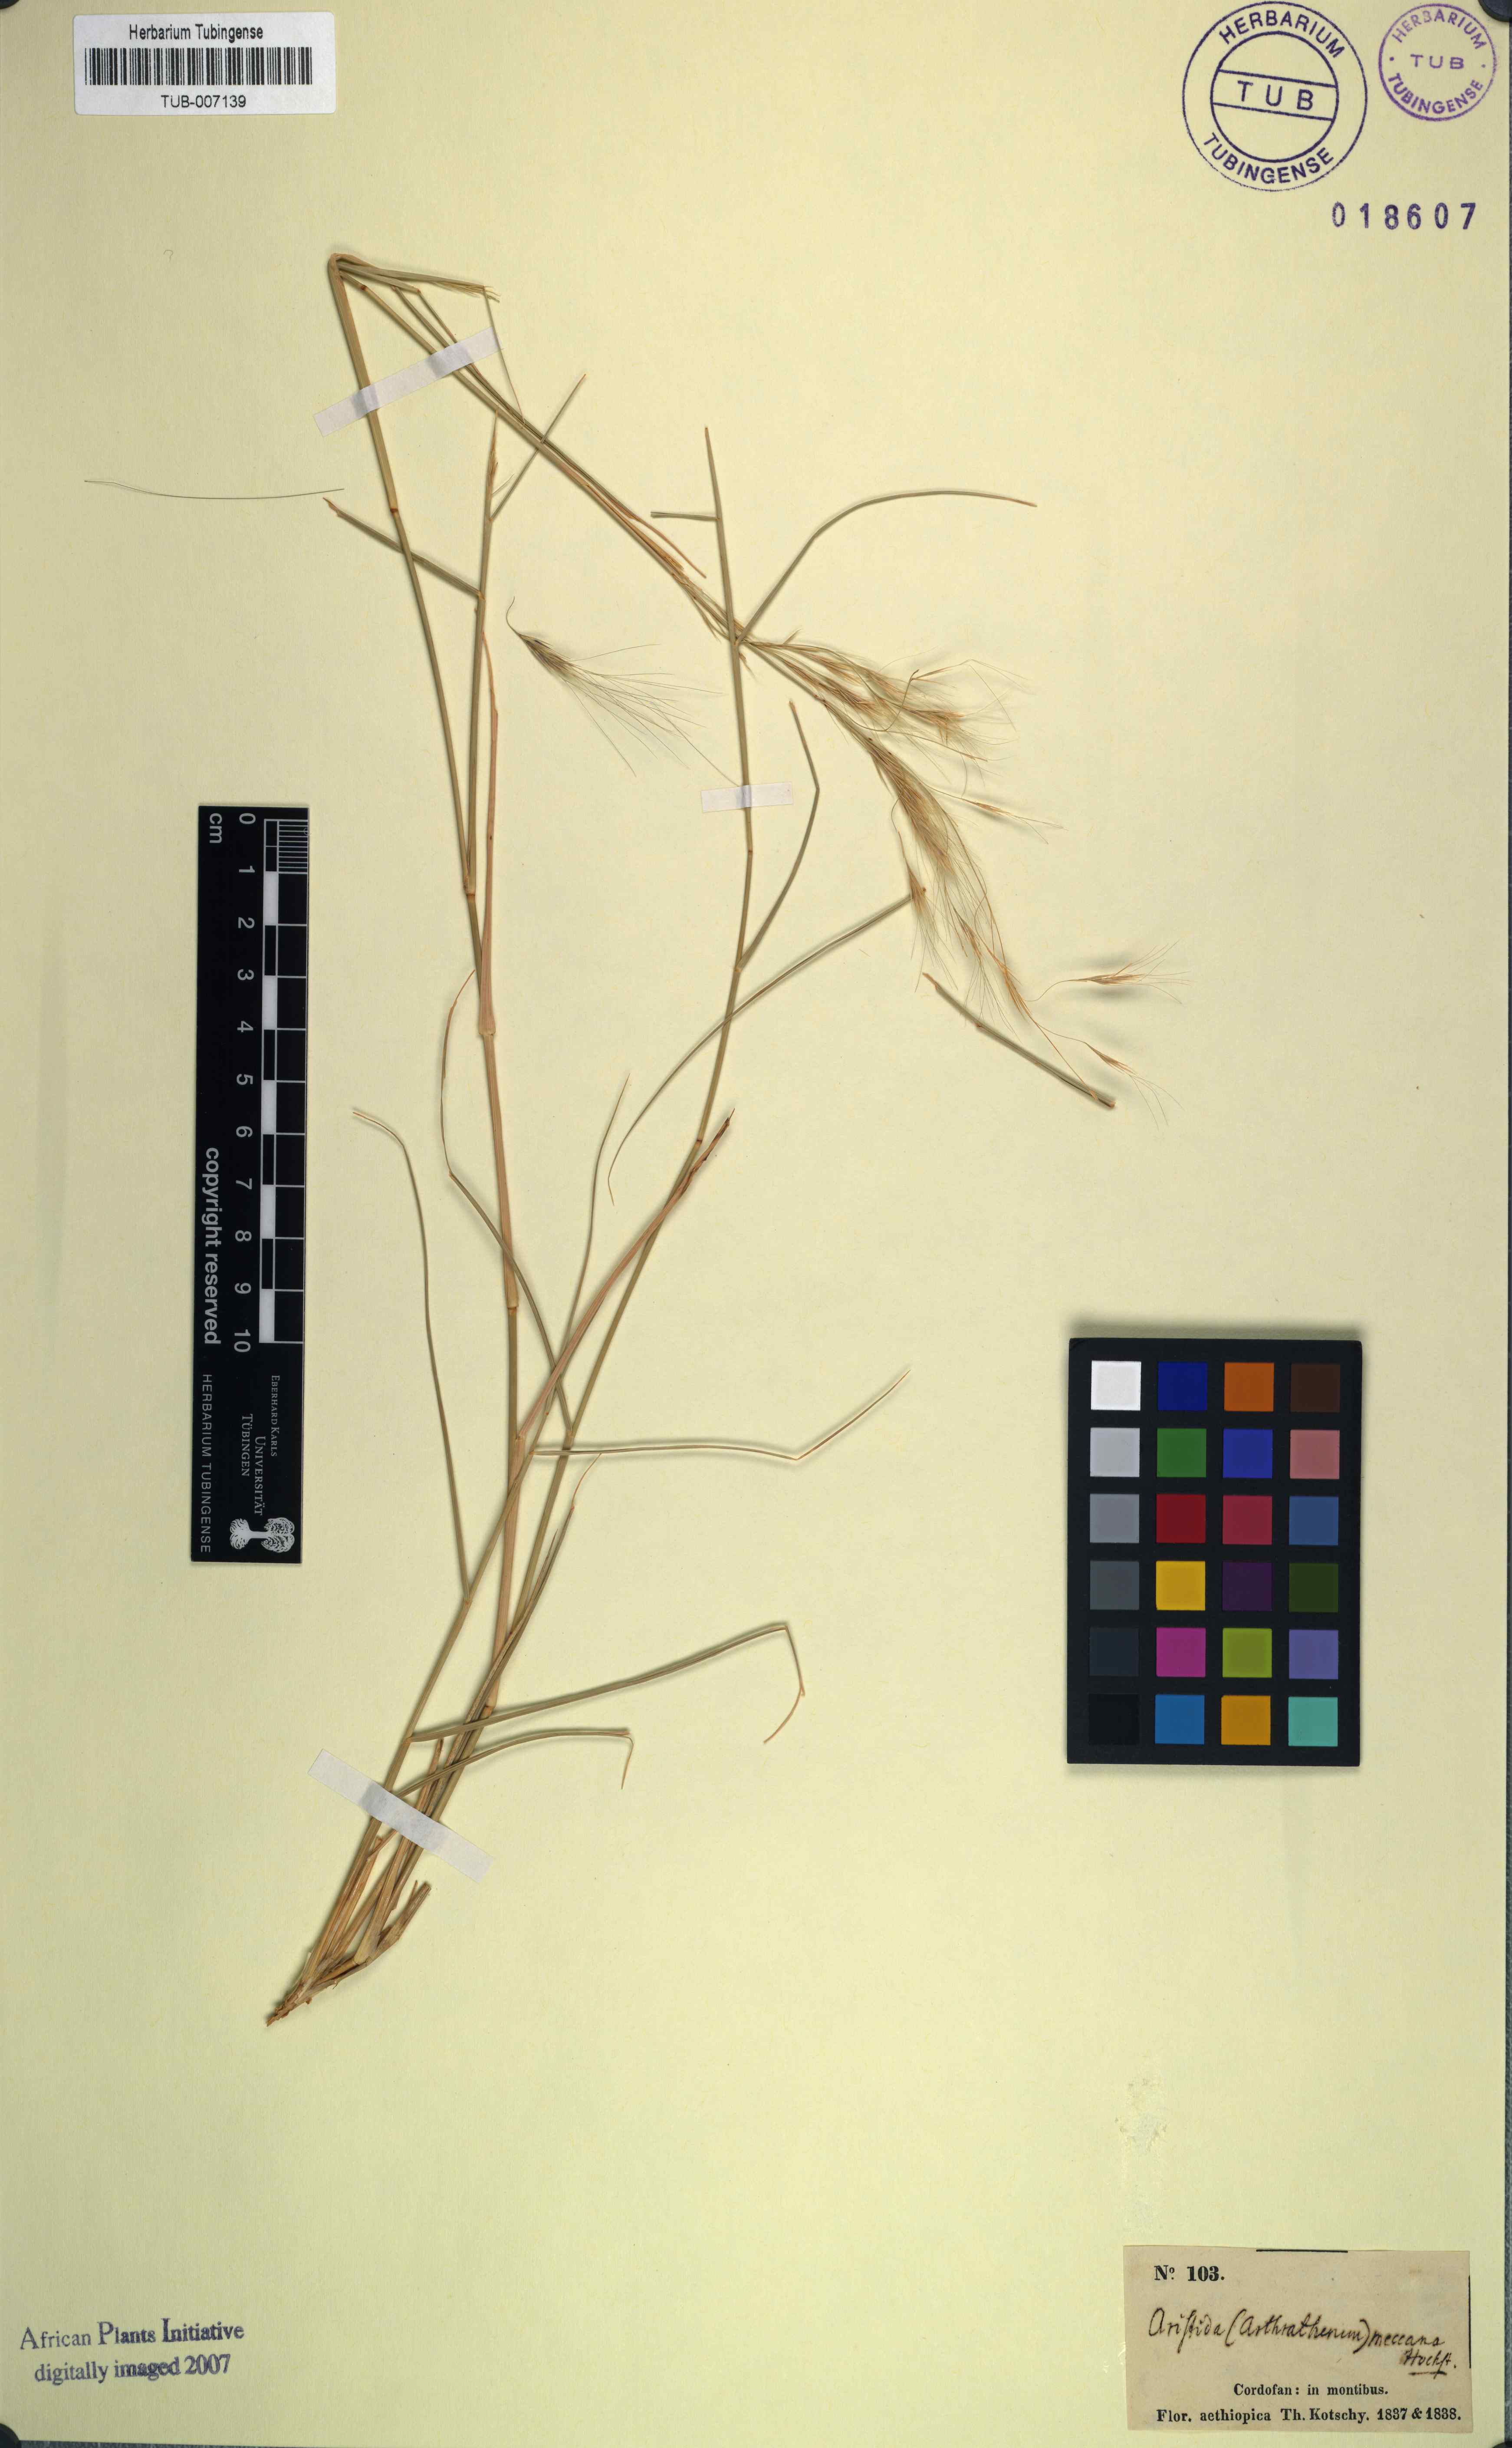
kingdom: Plantae
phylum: Tracheophyta
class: Liliopsida
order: Poales
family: Poaceae
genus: Aristida
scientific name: Aristida mutabilis
